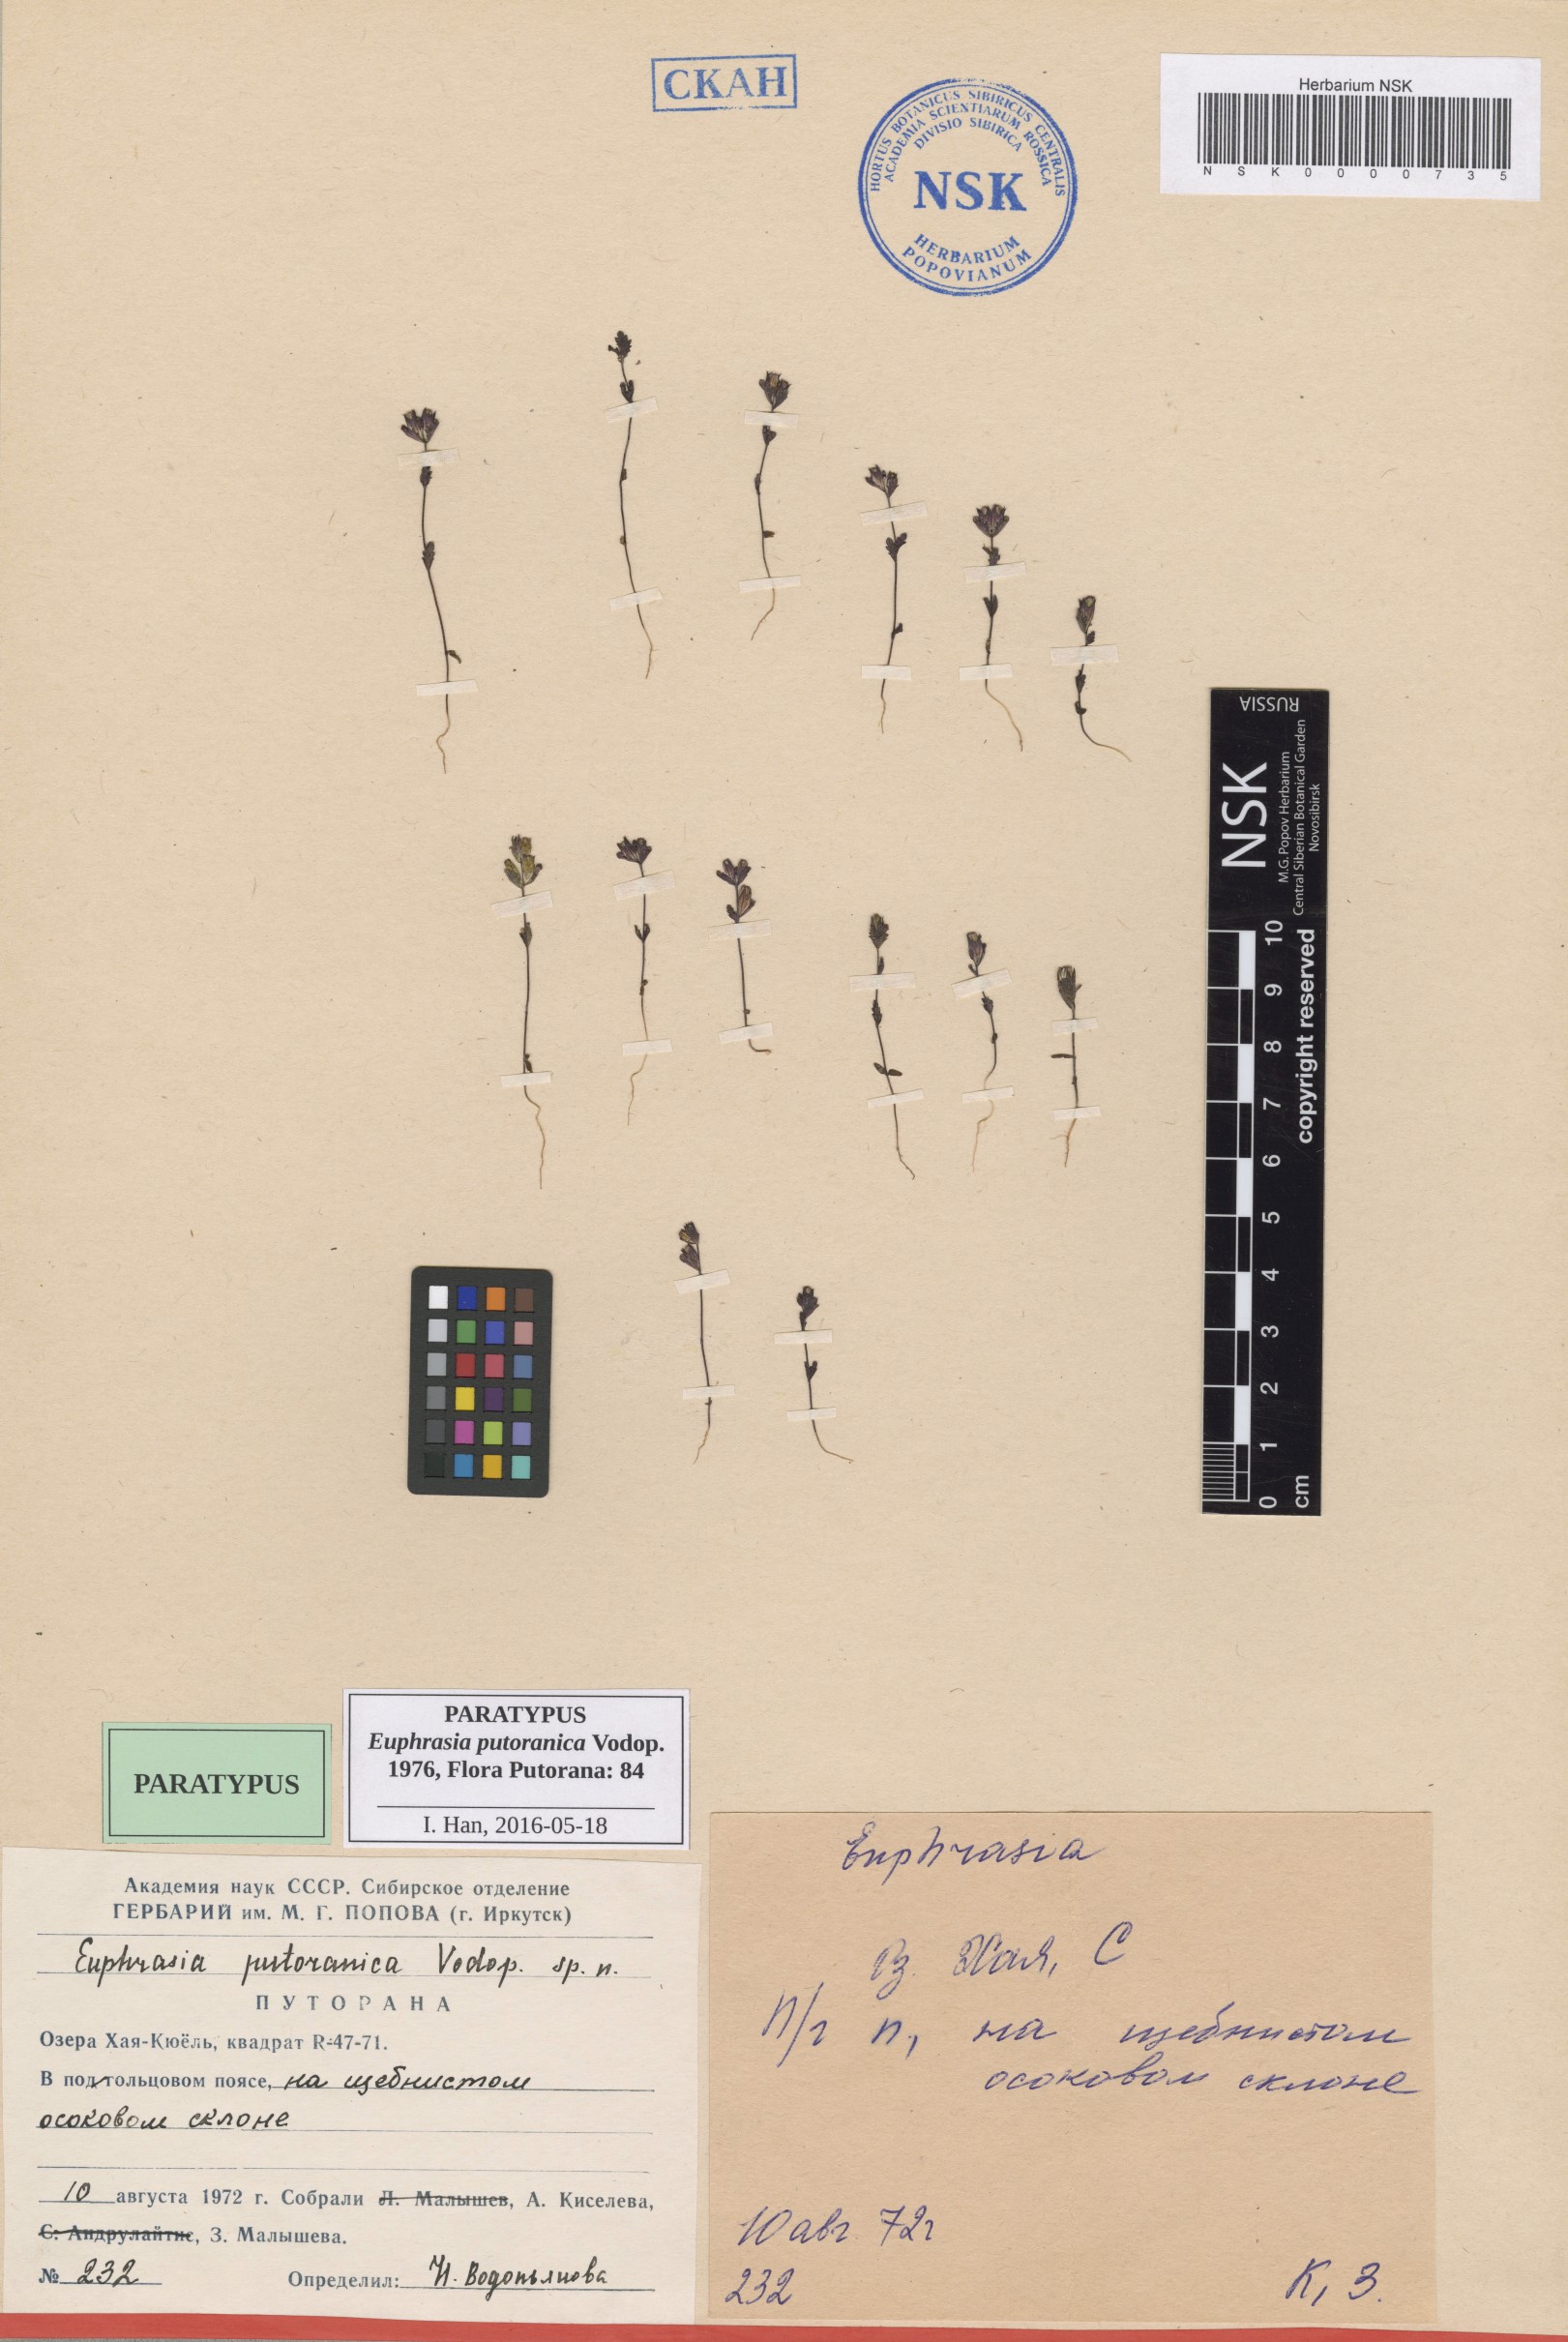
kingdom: Plantae
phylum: Tracheophyta
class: Magnoliopsida
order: Lamiales
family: Orobanchaceae
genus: Euphrasia
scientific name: Euphrasia frigida
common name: An eyebright
